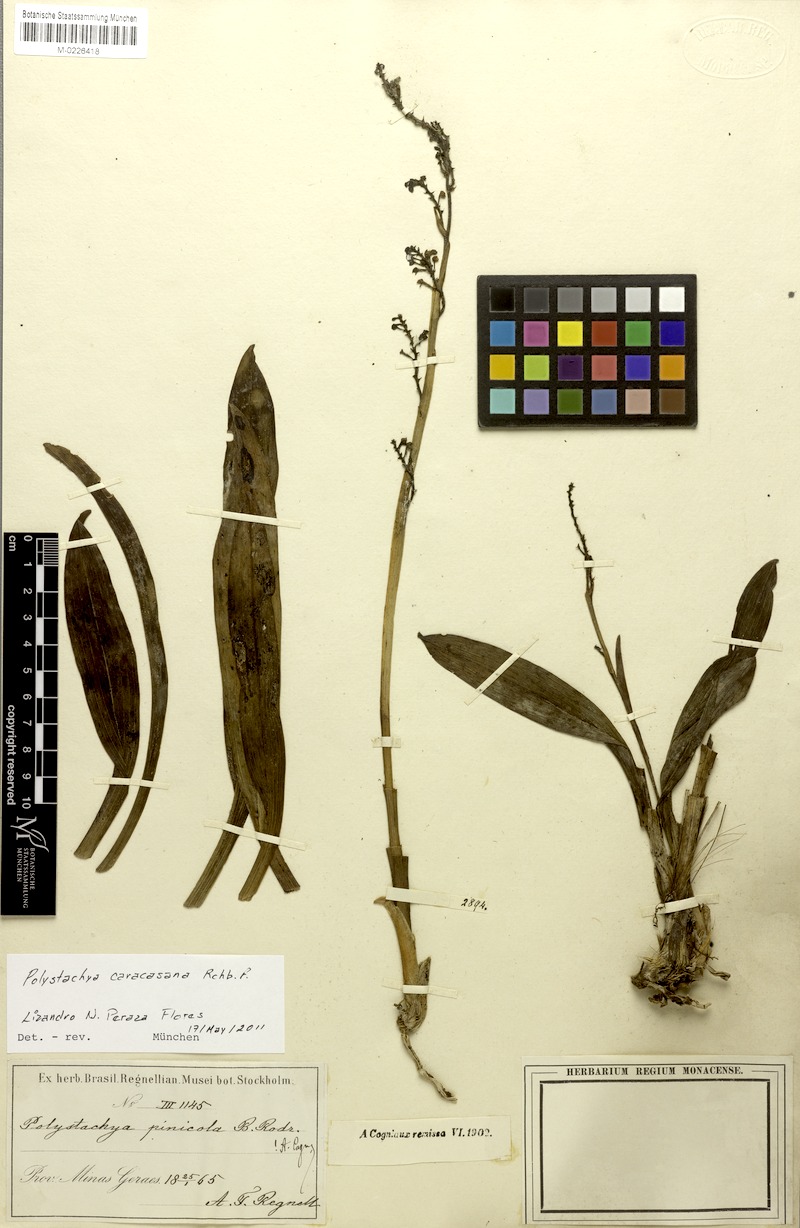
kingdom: Plantae
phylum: Tracheophyta
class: Liliopsida
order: Asparagales
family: Orchidaceae
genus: Polystachya
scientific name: Polystachya pinicola
